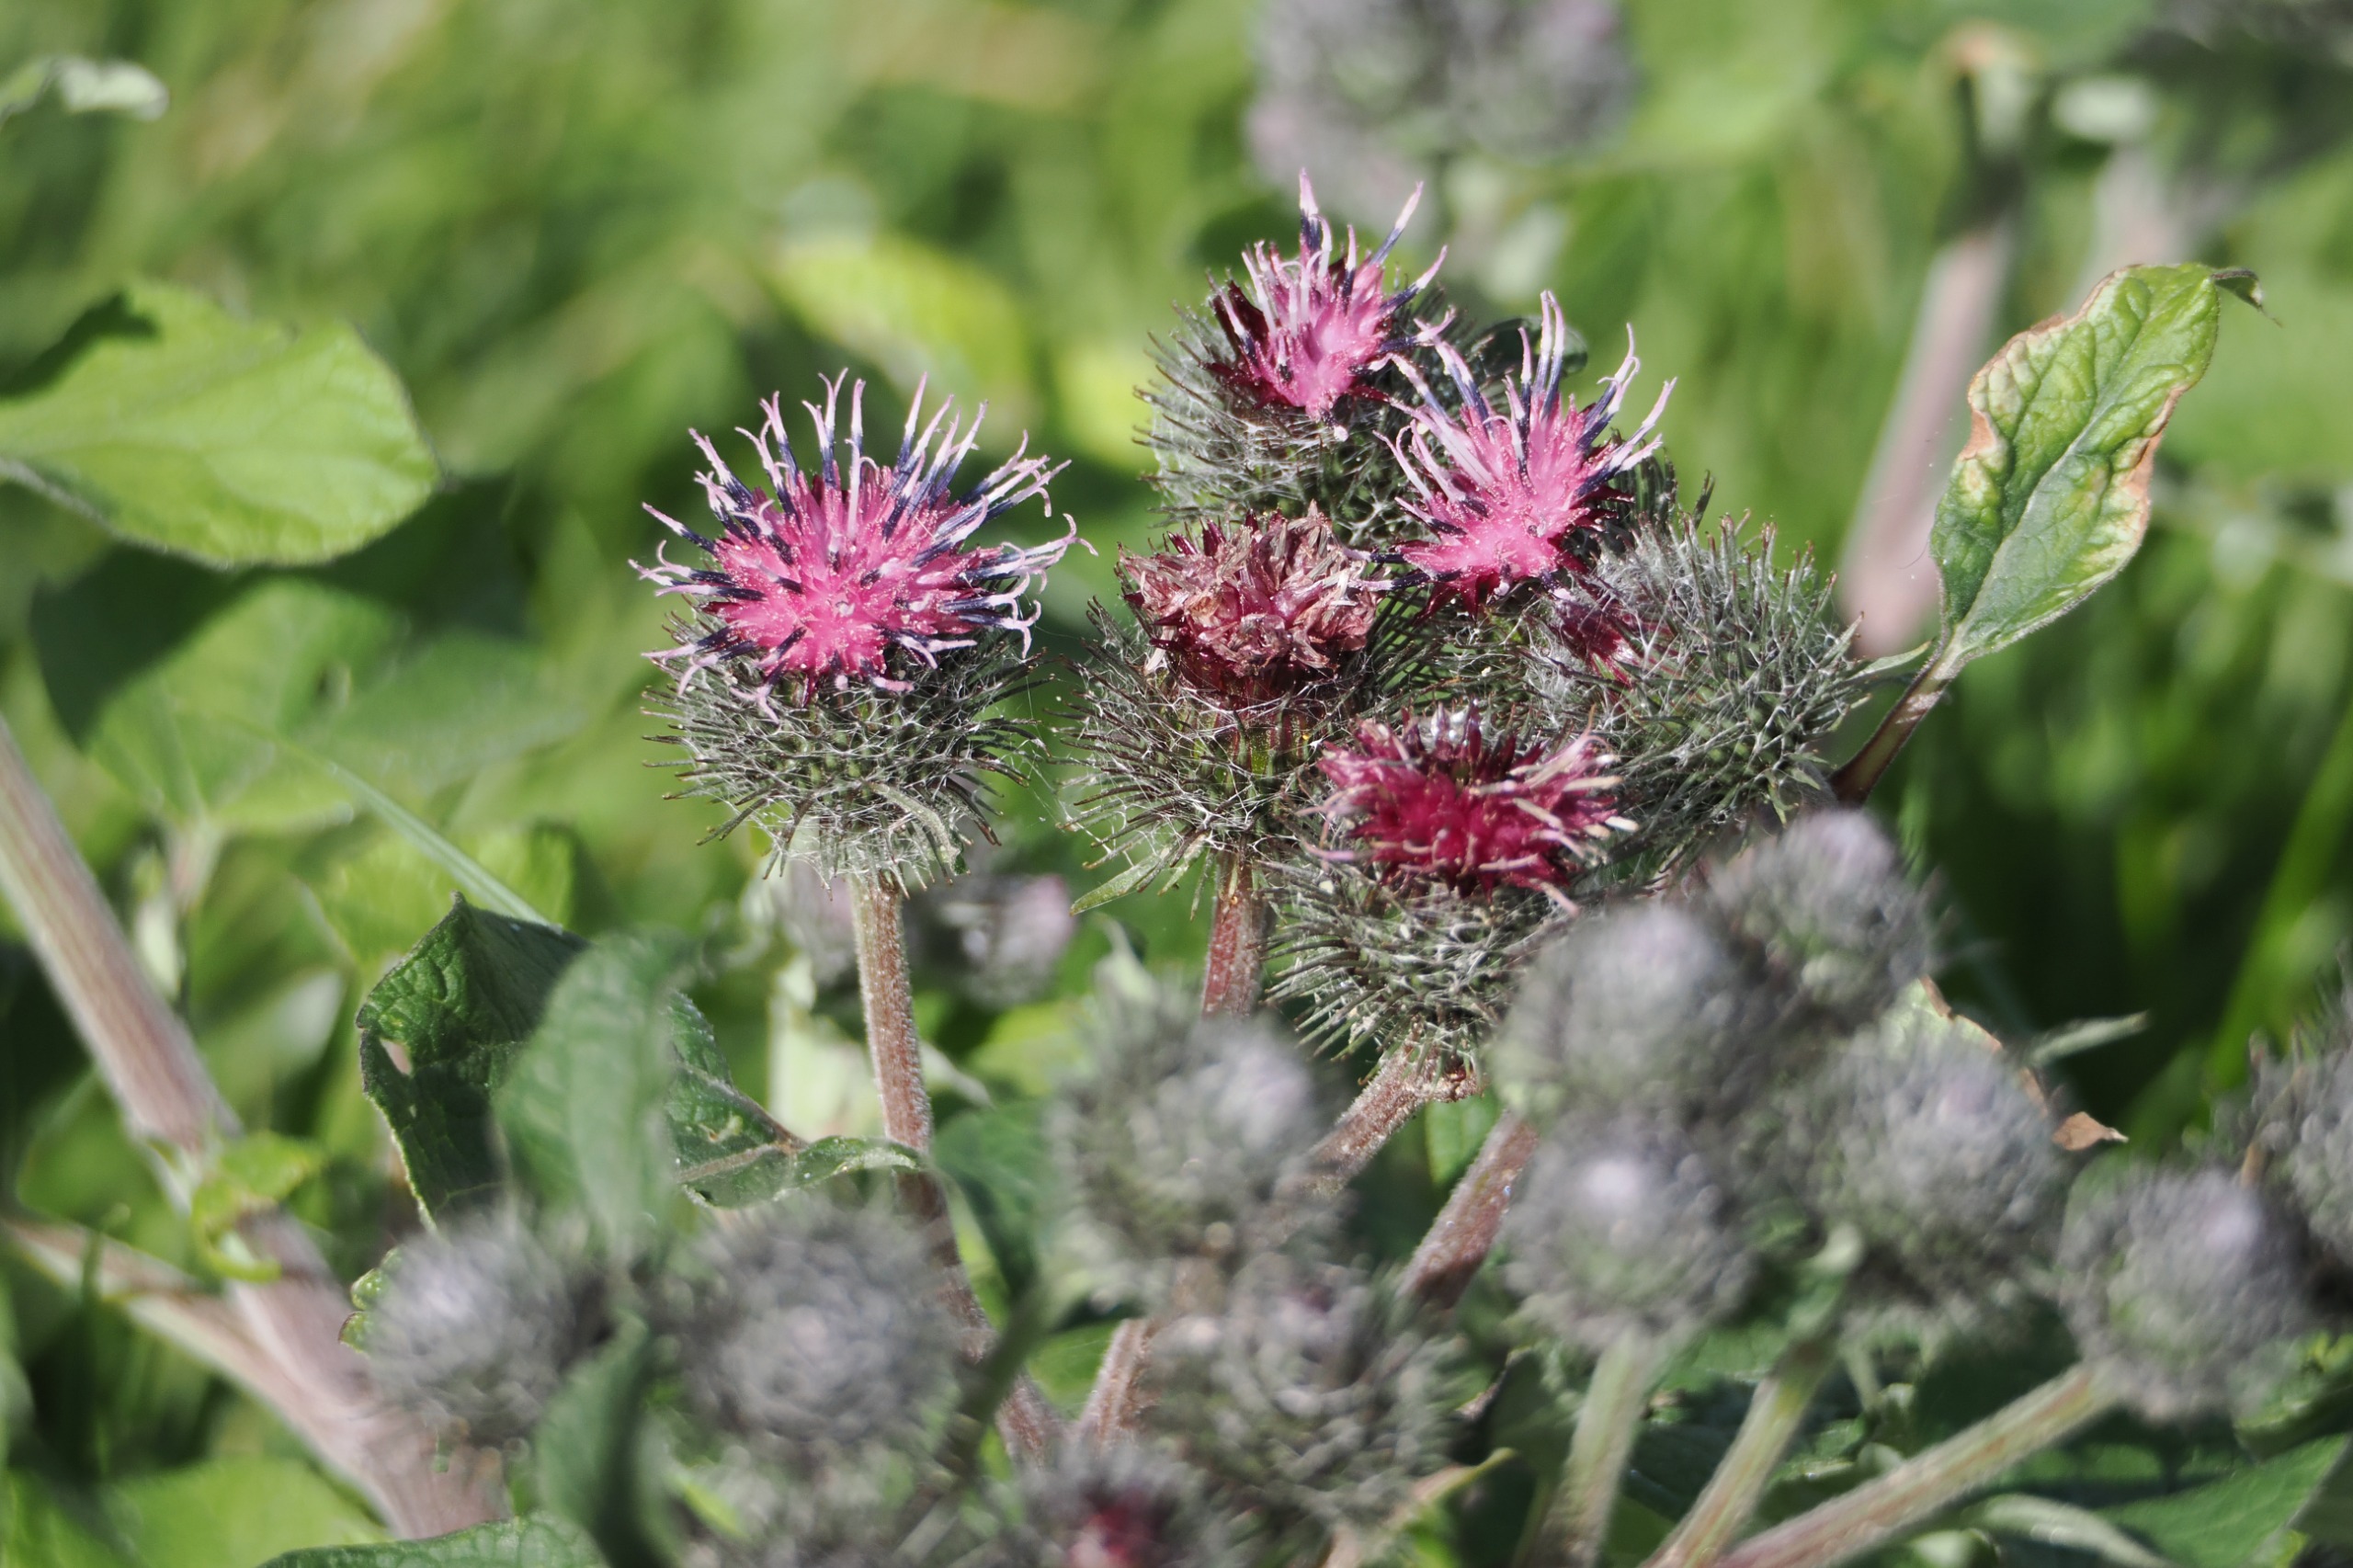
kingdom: Plantae
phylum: Tracheophyta
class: Magnoliopsida
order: Asterales
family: Asteraceae
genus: Arctium
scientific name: Arctium tomentosum
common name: Filtet burre
